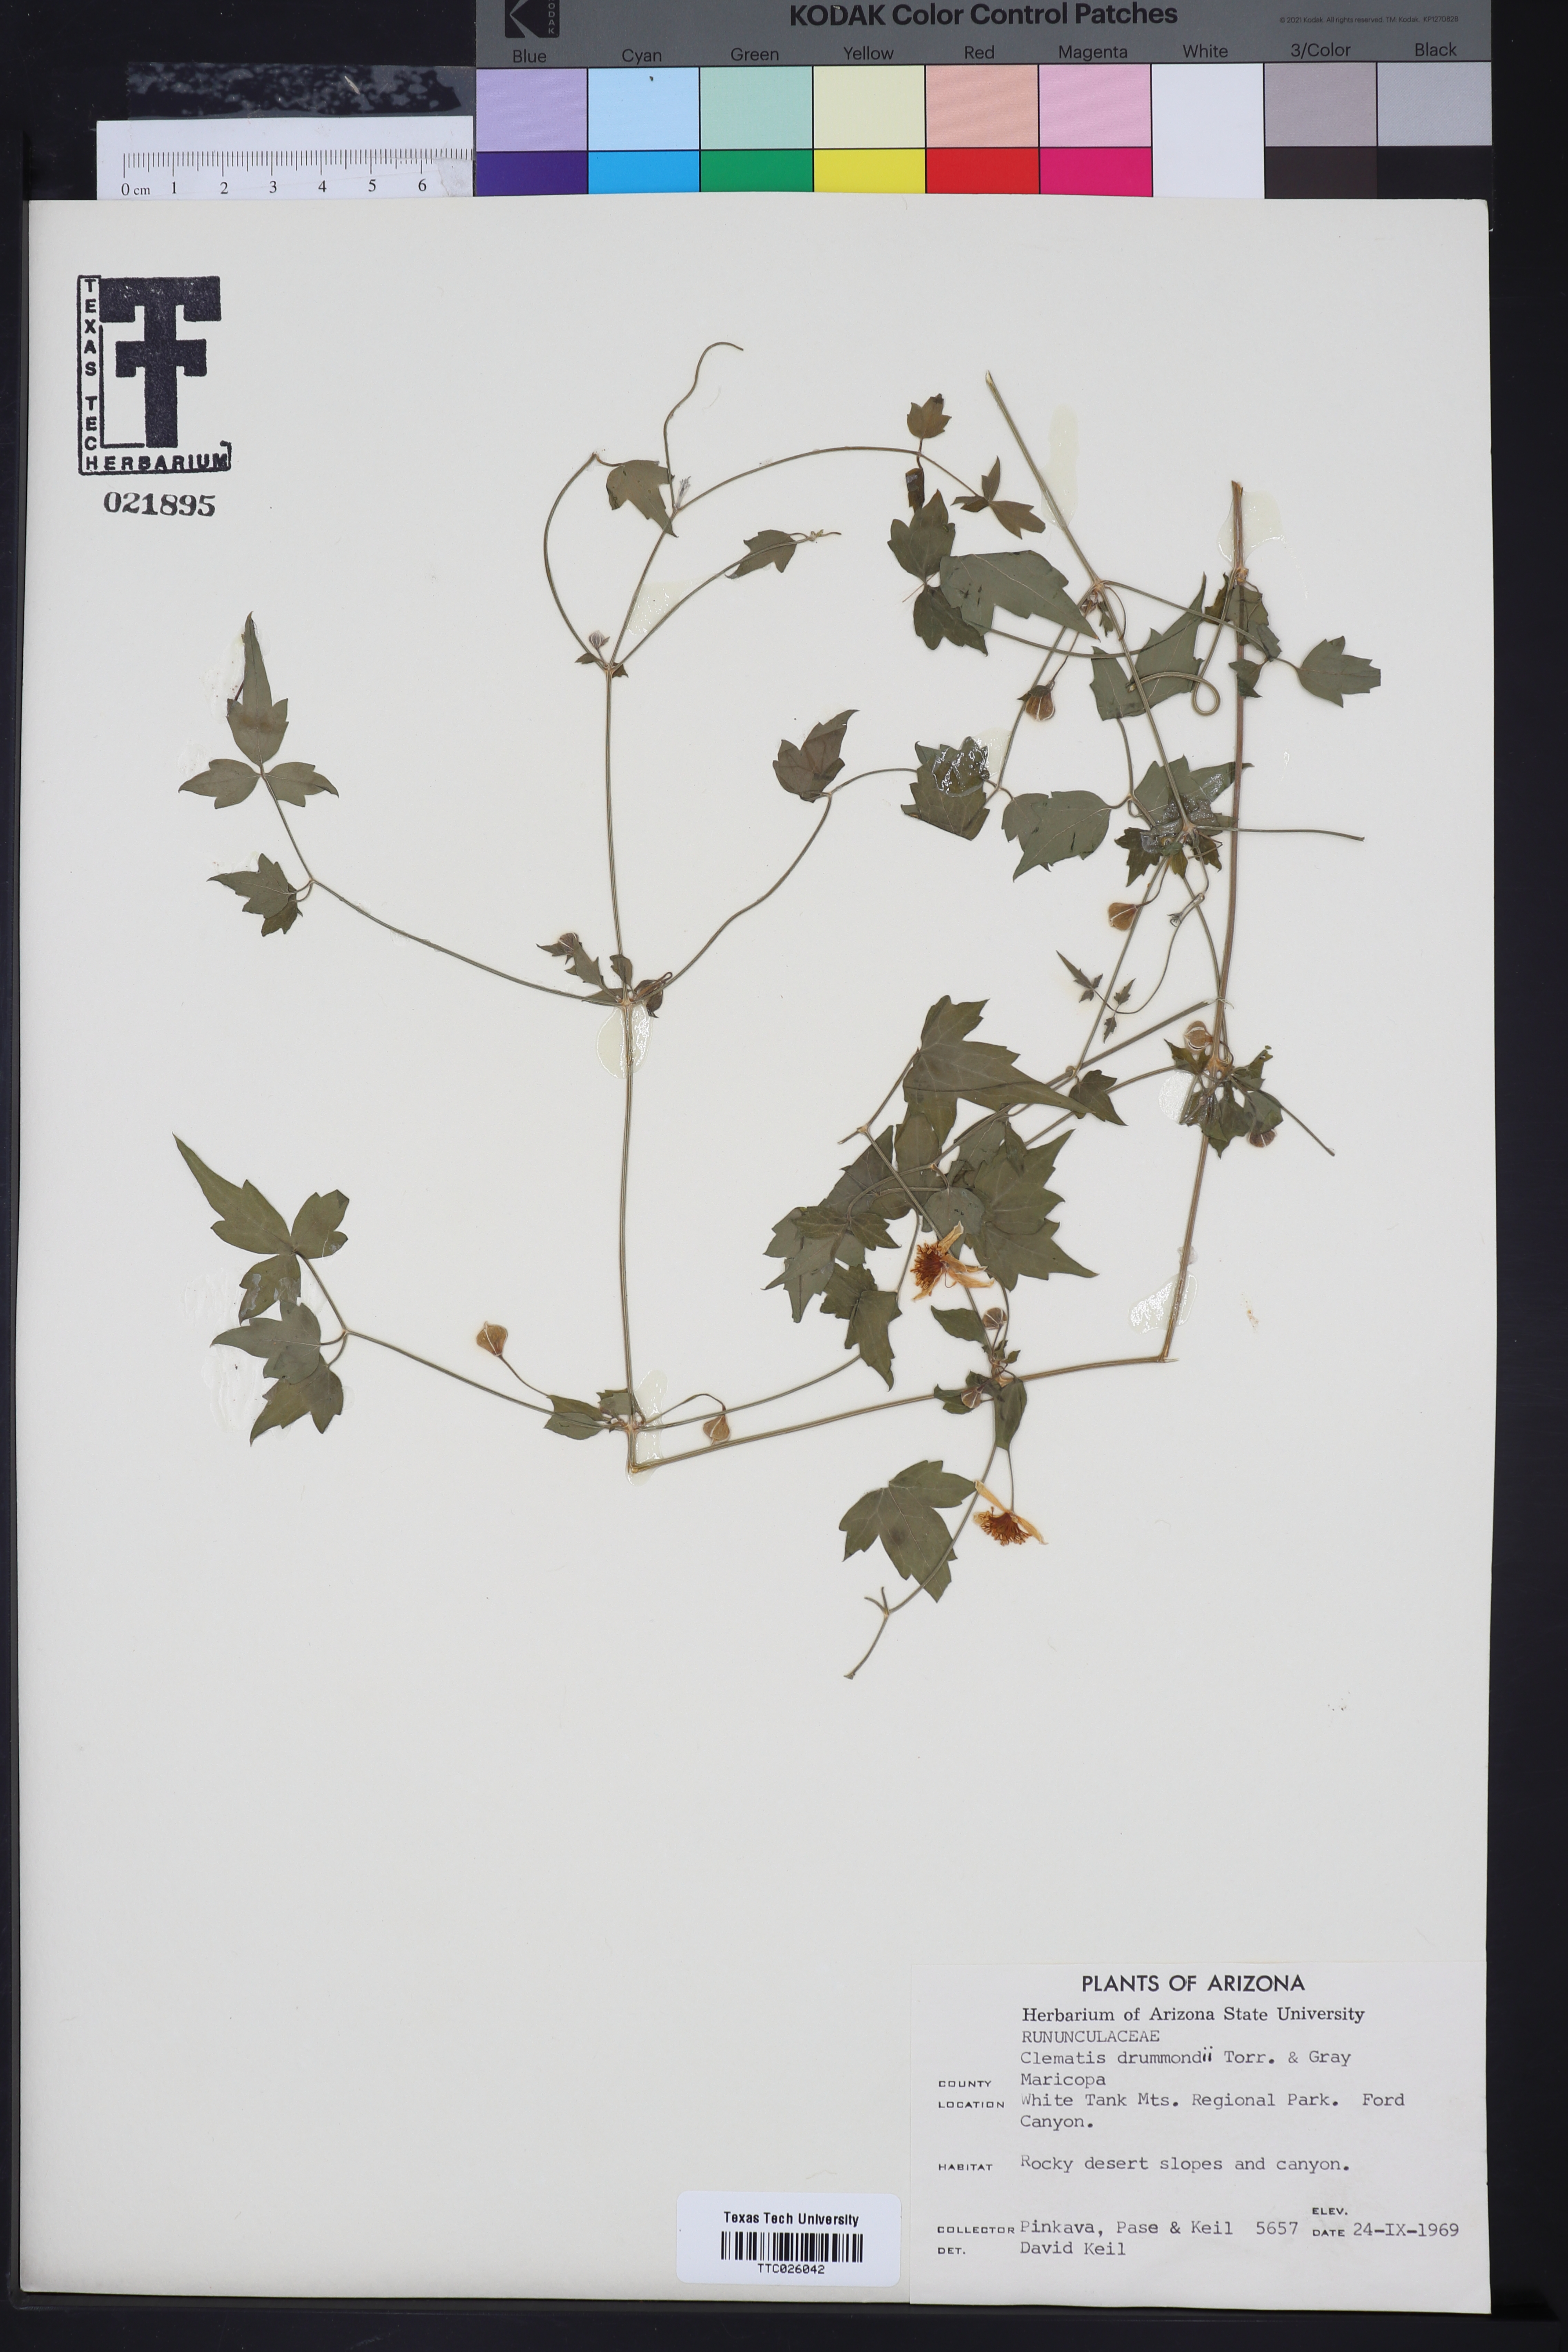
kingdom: Plantae
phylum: Tracheophyta
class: Magnoliopsida
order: Ranunculales
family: Ranunculaceae
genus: Clematis
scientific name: Clematis drummondii
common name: Texas virgin's bower
